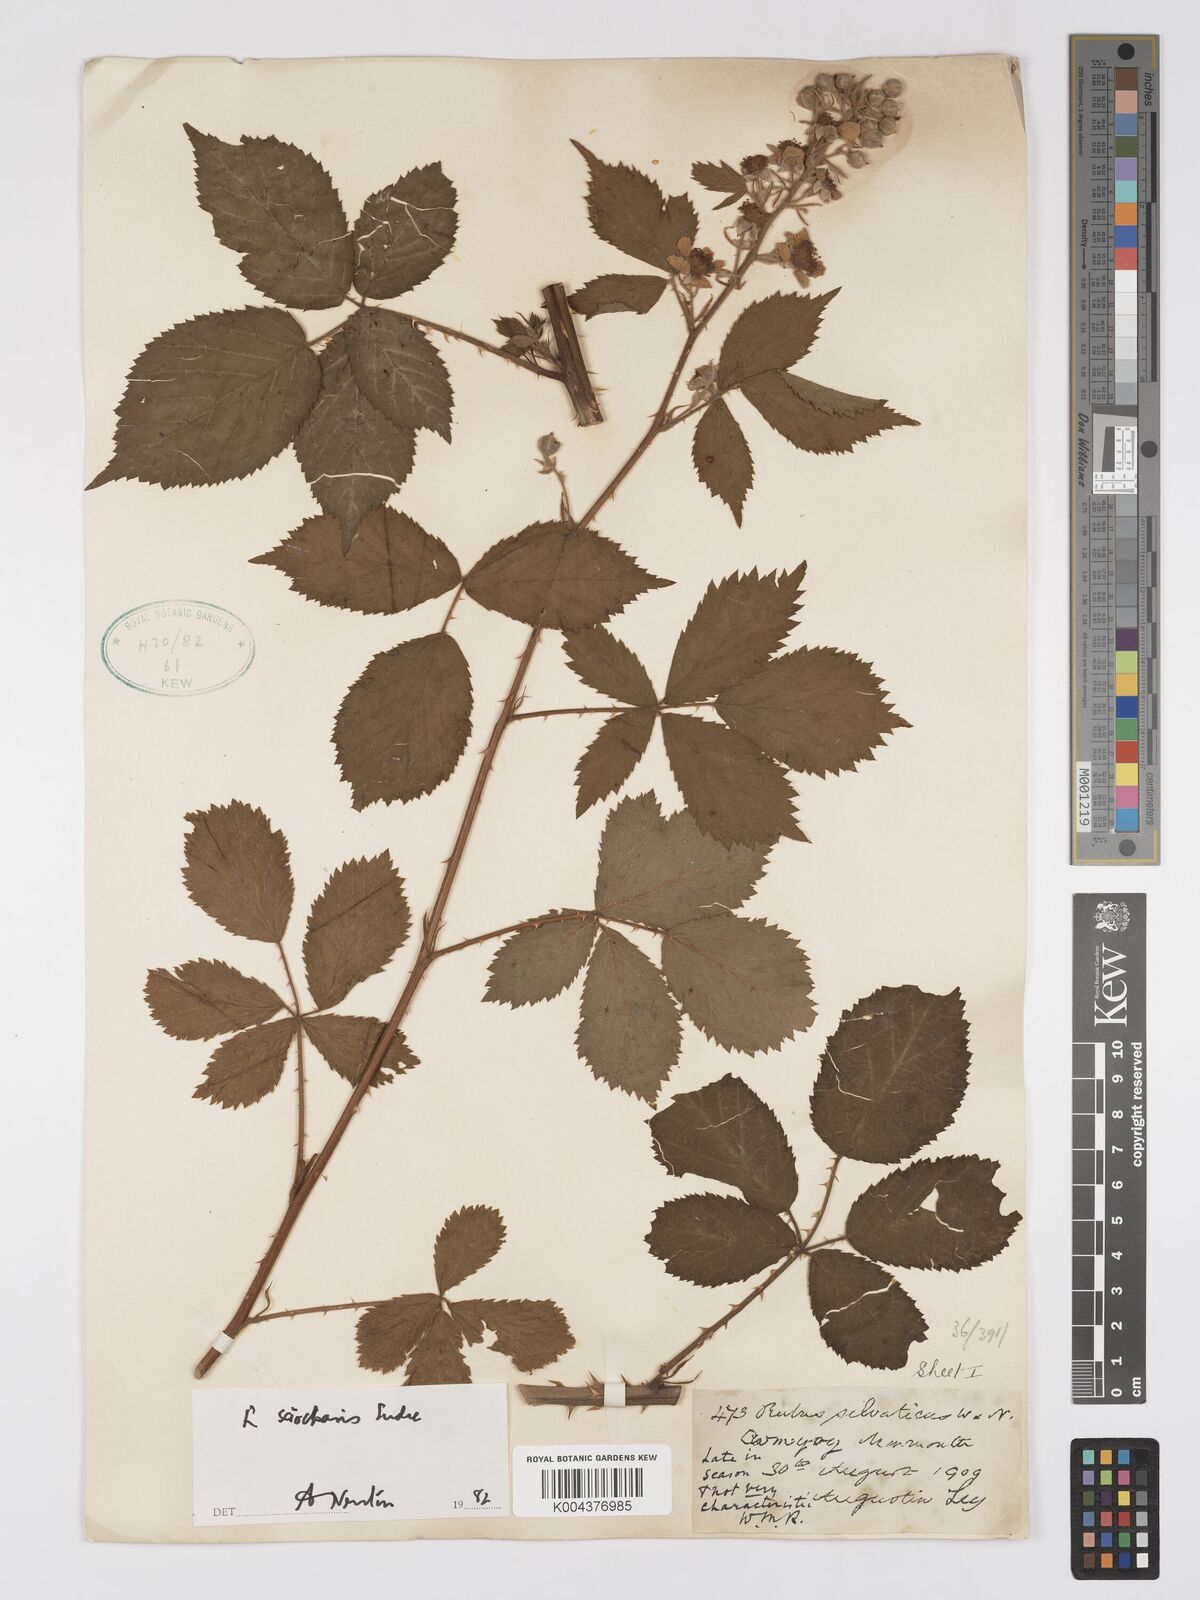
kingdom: Plantae
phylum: Tracheophyta
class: Magnoliopsida
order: Rosales
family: Rosaceae
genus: Rubus
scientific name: Rubus sciocharis
